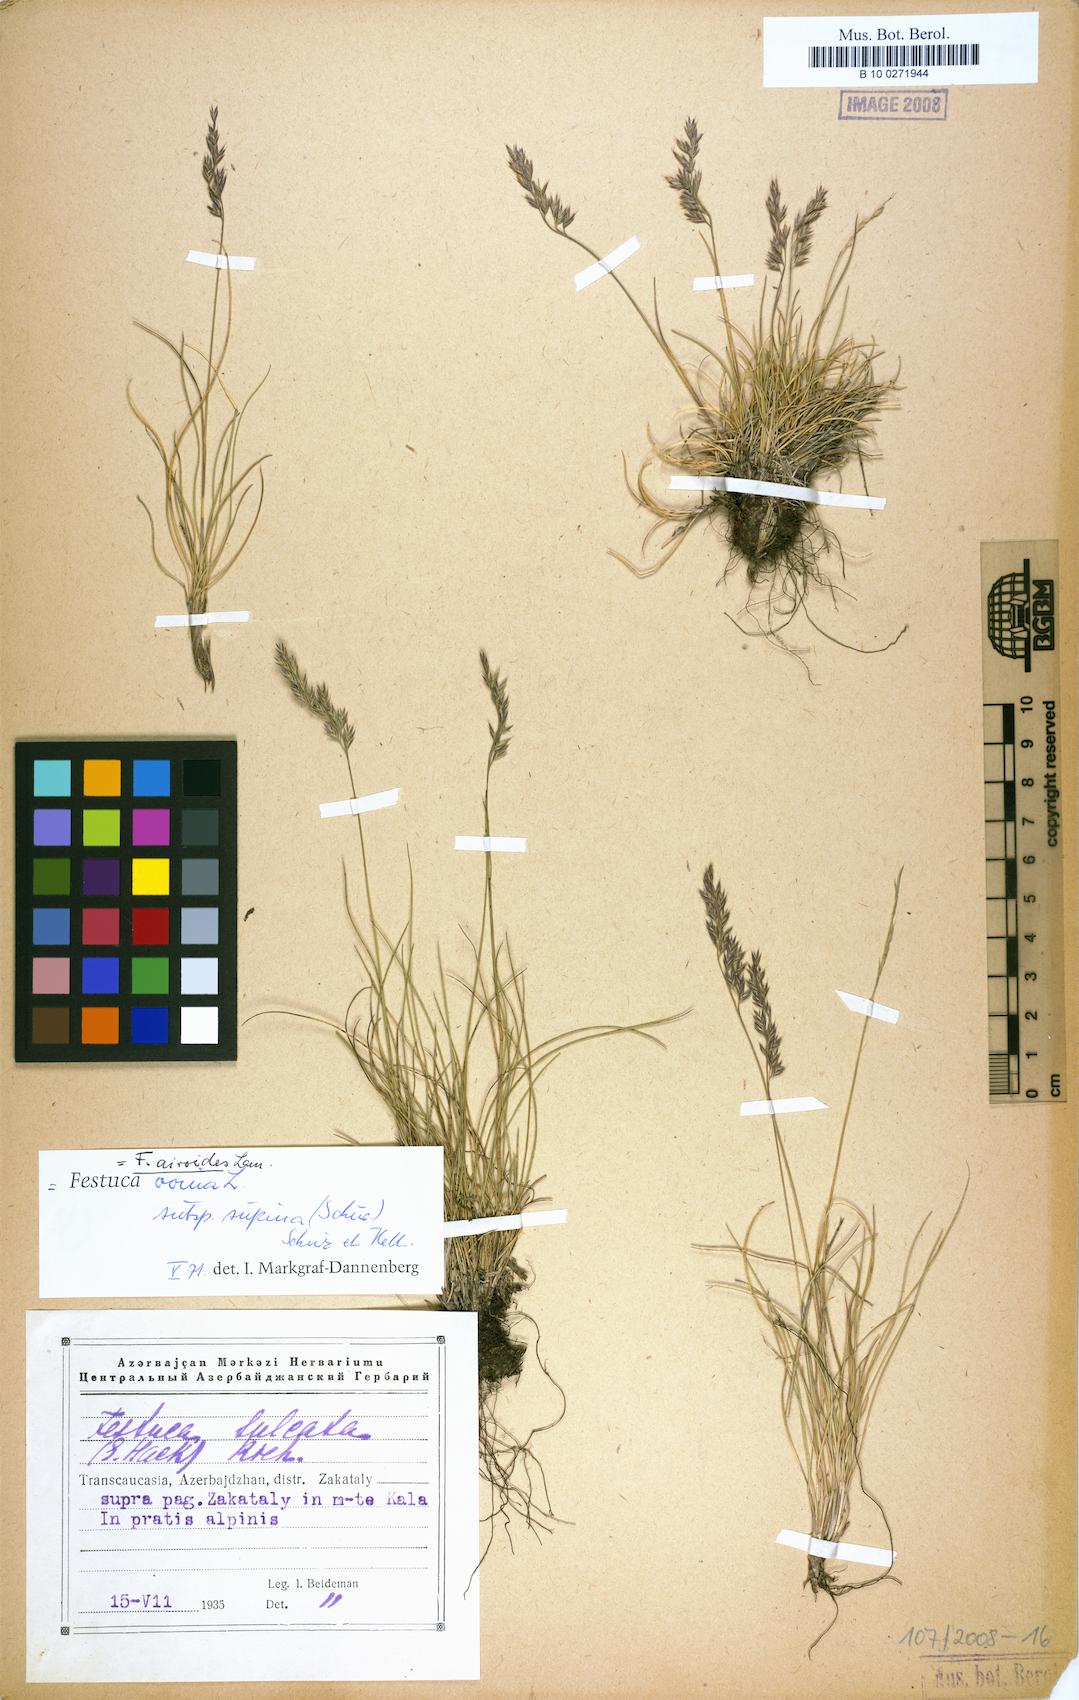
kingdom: Plantae
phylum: Tracheophyta
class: Liliopsida
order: Poales
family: Poaceae
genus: Festuca
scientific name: Festuca airoides
